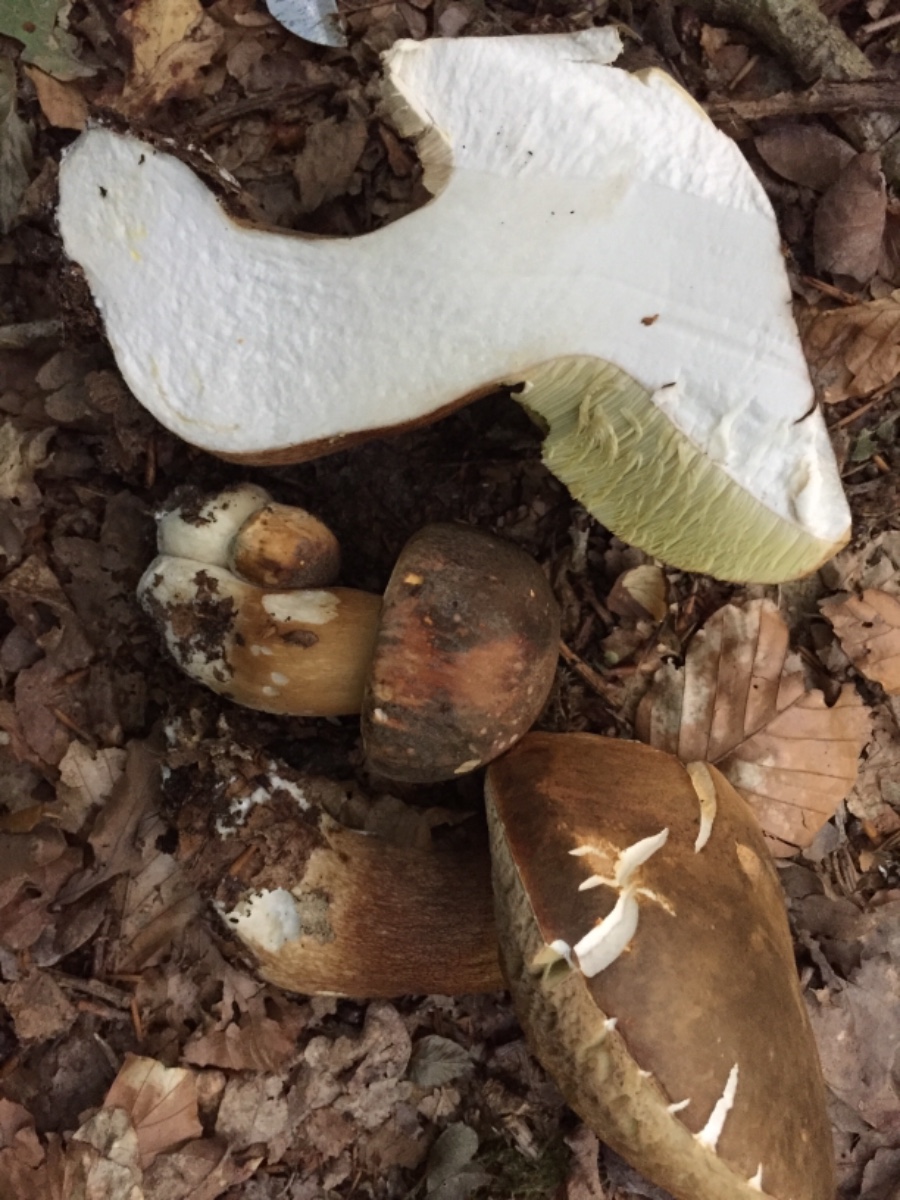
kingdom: Fungi
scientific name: Fungi
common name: bronze-rørhat
